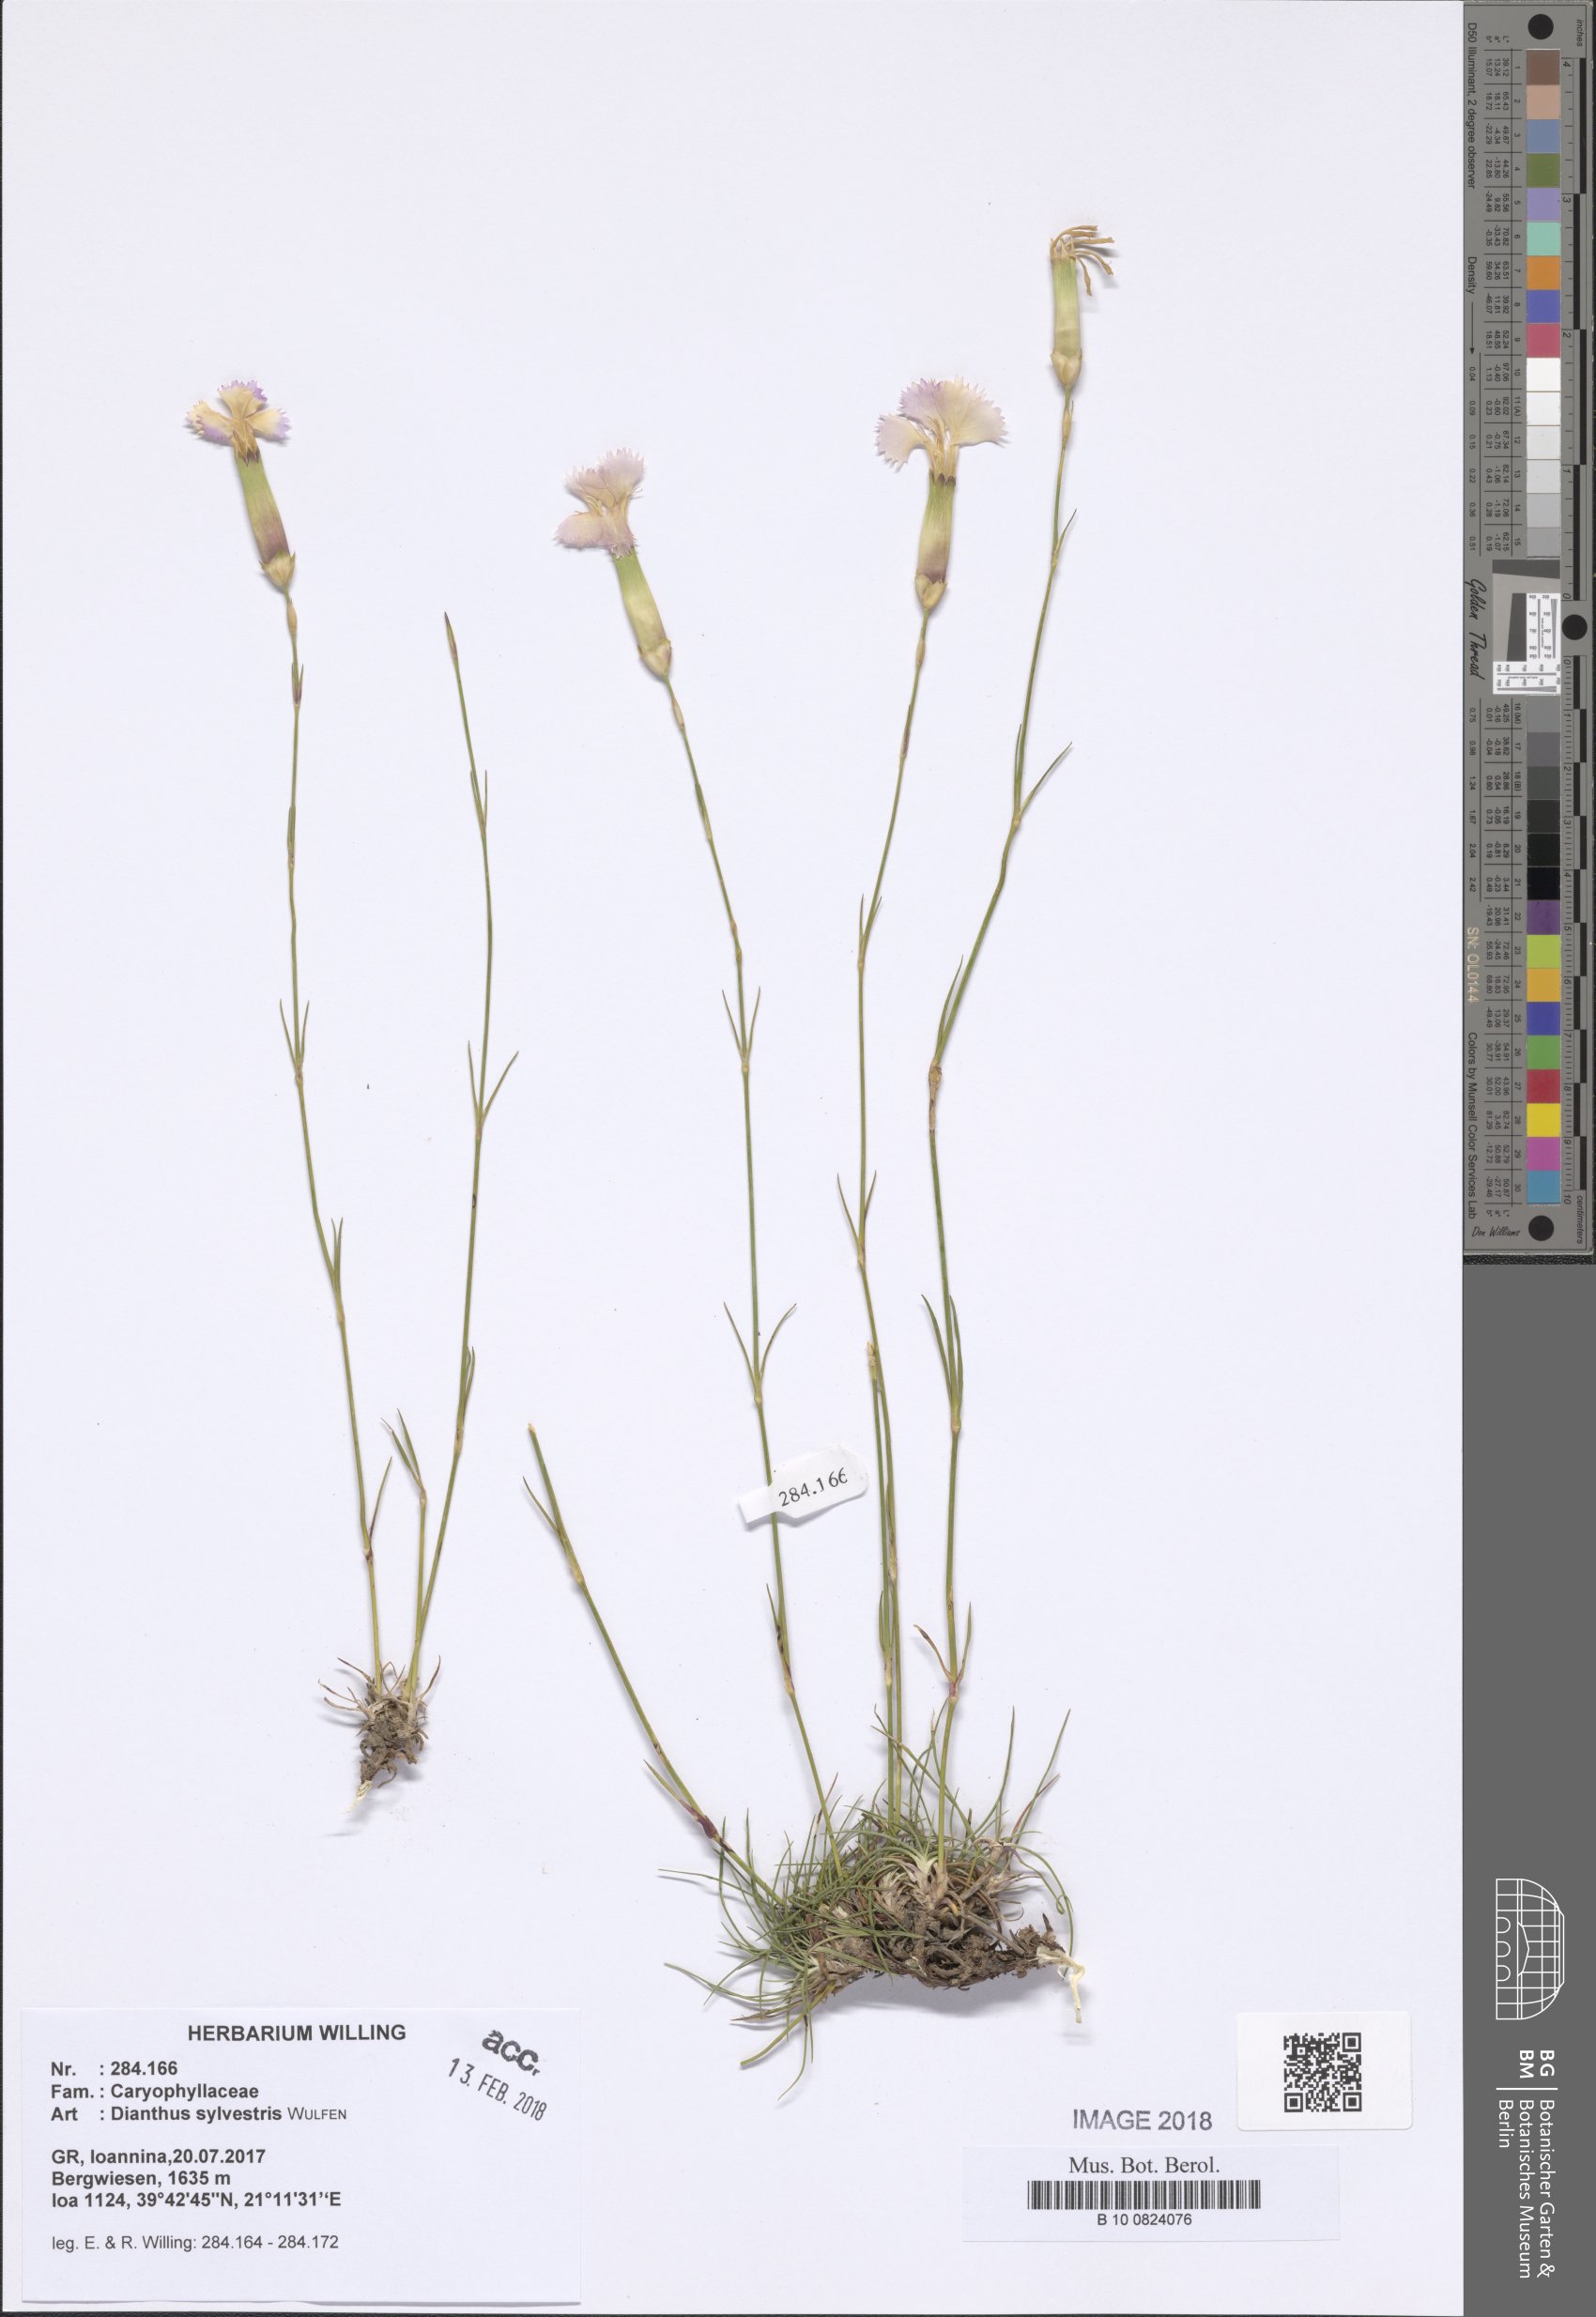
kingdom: Plantae
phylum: Tracheophyta
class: Magnoliopsida
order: Caryophyllales
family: Caryophyllaceae
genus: Dianthus
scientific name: Dianthus sylvestris
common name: Wood pink
